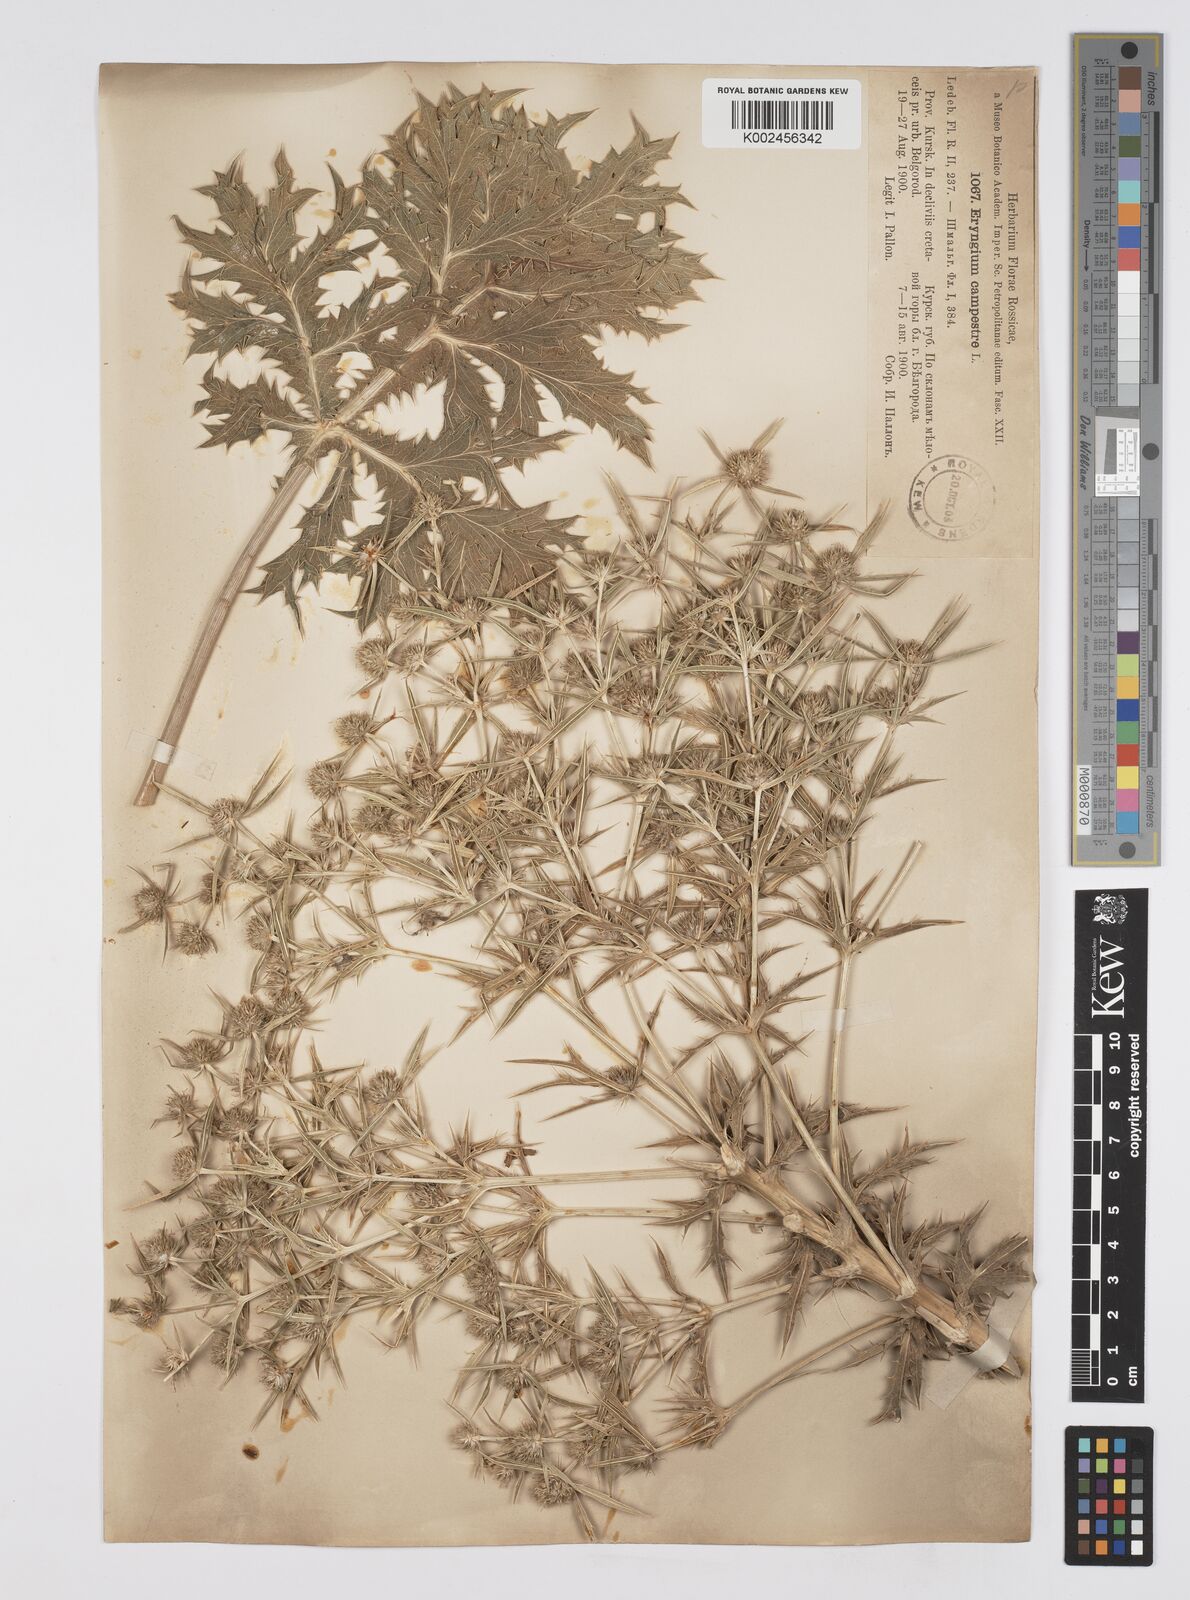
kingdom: Plantae
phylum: Tracheophyta
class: Magnoliopsida
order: Apiales
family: Apiaceae
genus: Eryngium
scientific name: Eryngium campestre
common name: Field eryngo
